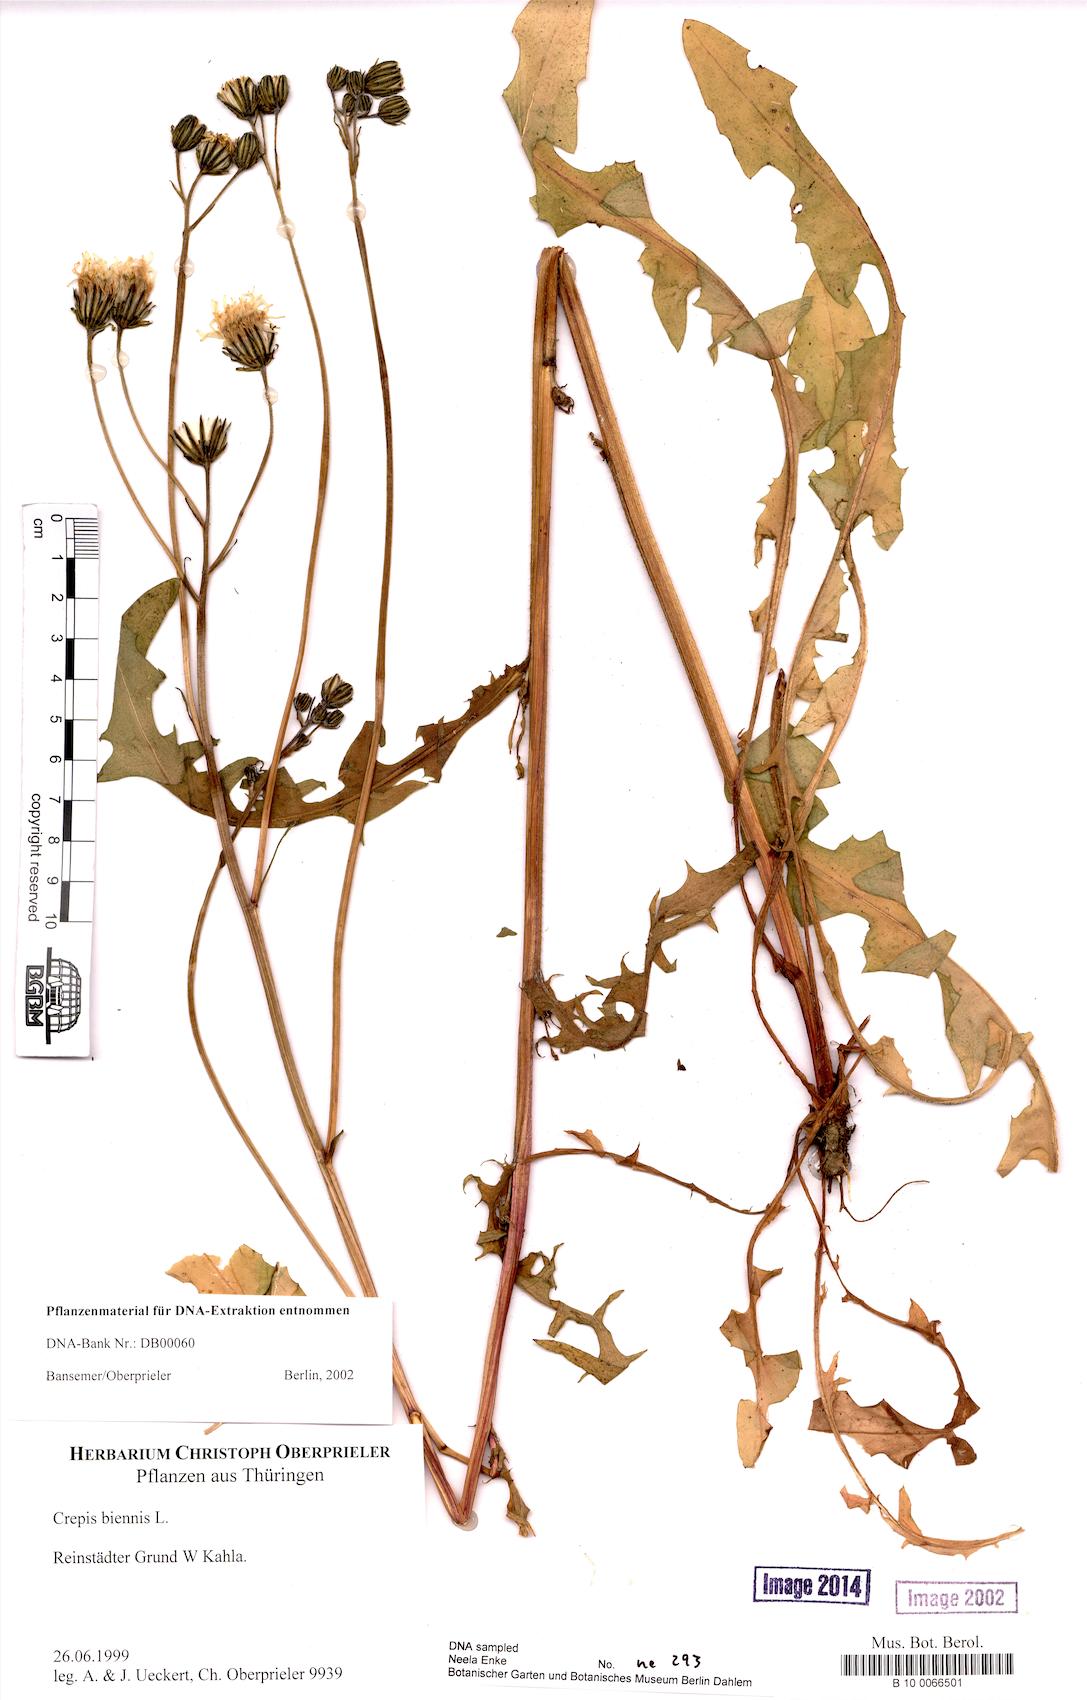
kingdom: Plantae
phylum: Tracheophyta
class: Magnoliopsida
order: Asterales
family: Asteraceae
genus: Crepis
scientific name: Crepis biennis
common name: Rough hawk's-beard
